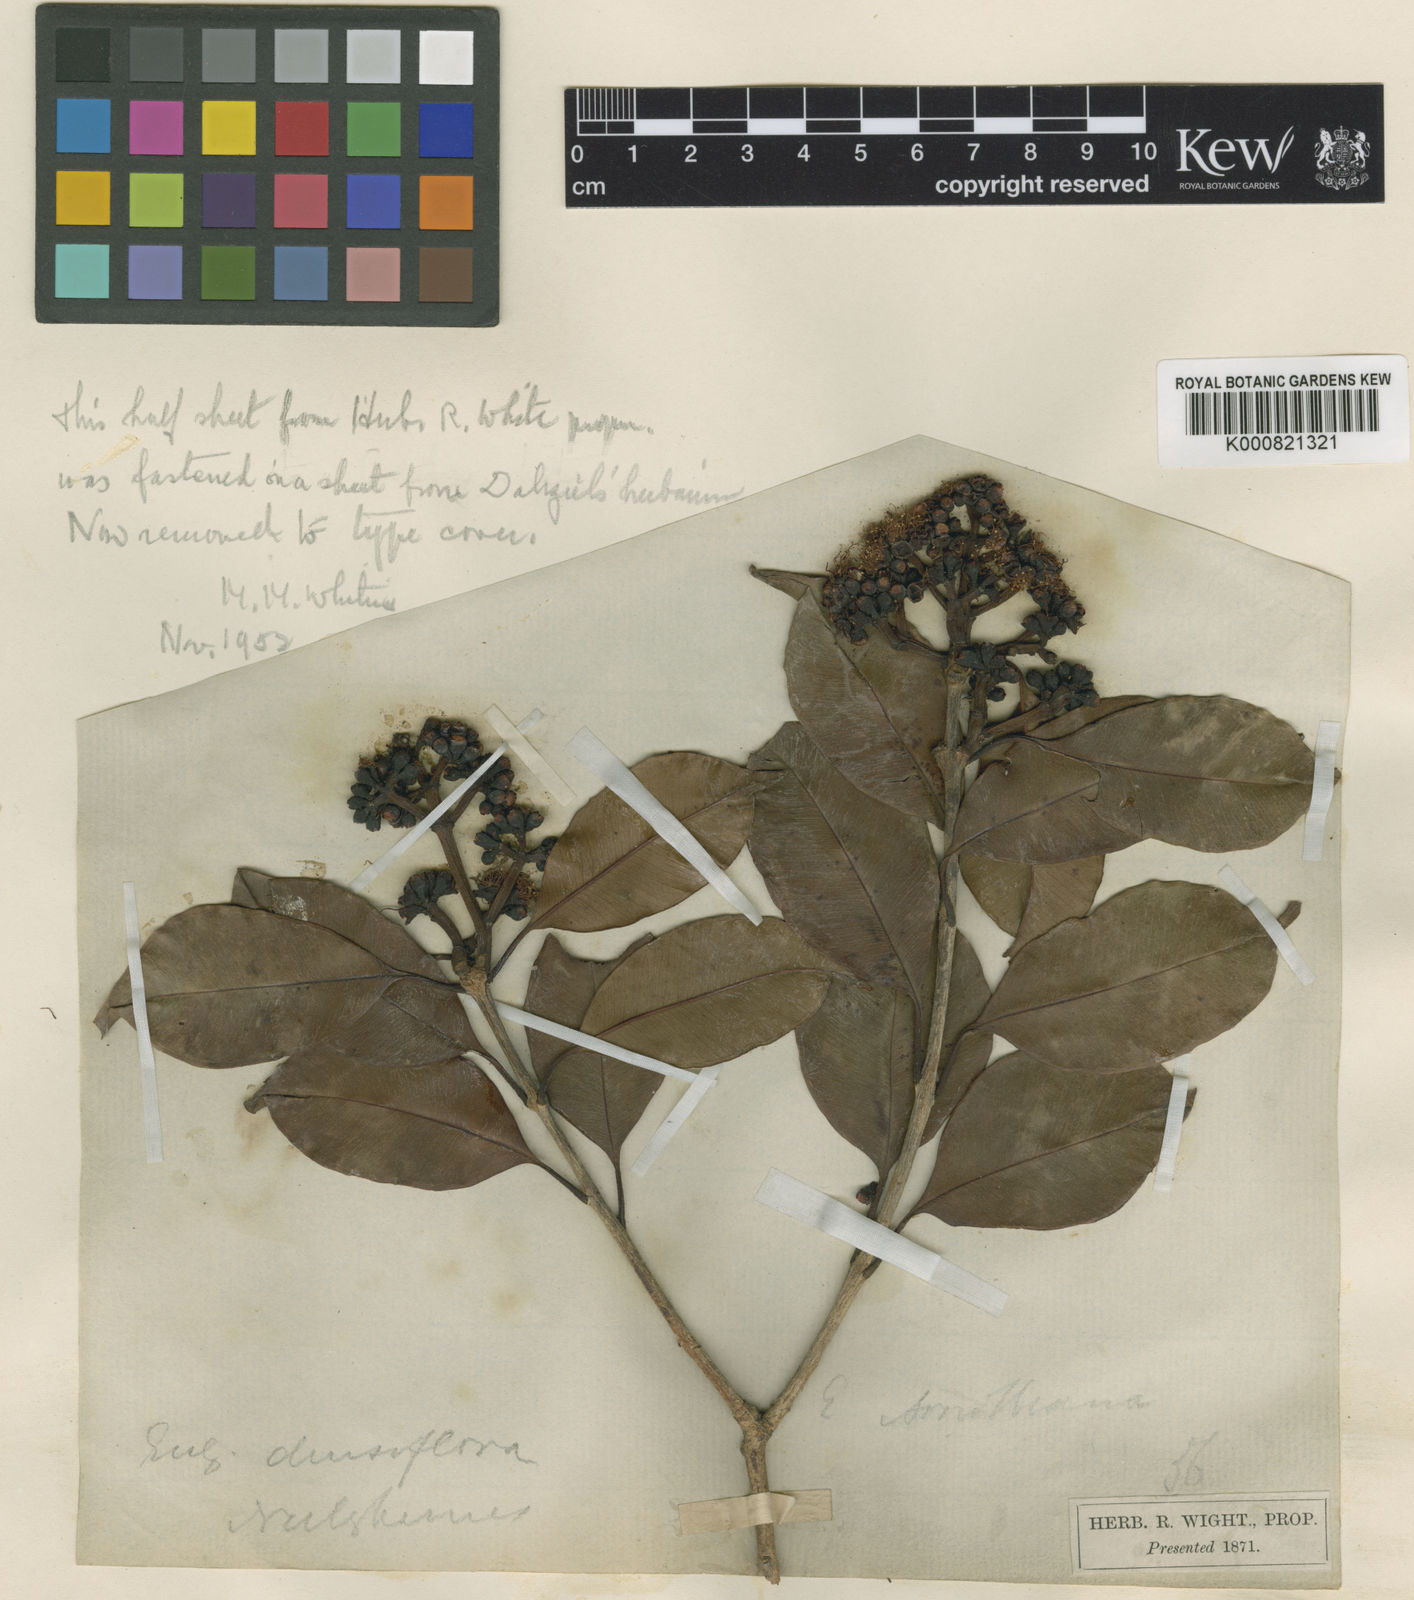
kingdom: Plantae
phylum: Tracheophyta
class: Magnoliopsida
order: Myrtales
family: Myrtaceae
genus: Syzygium
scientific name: Syzygium densiflorum
